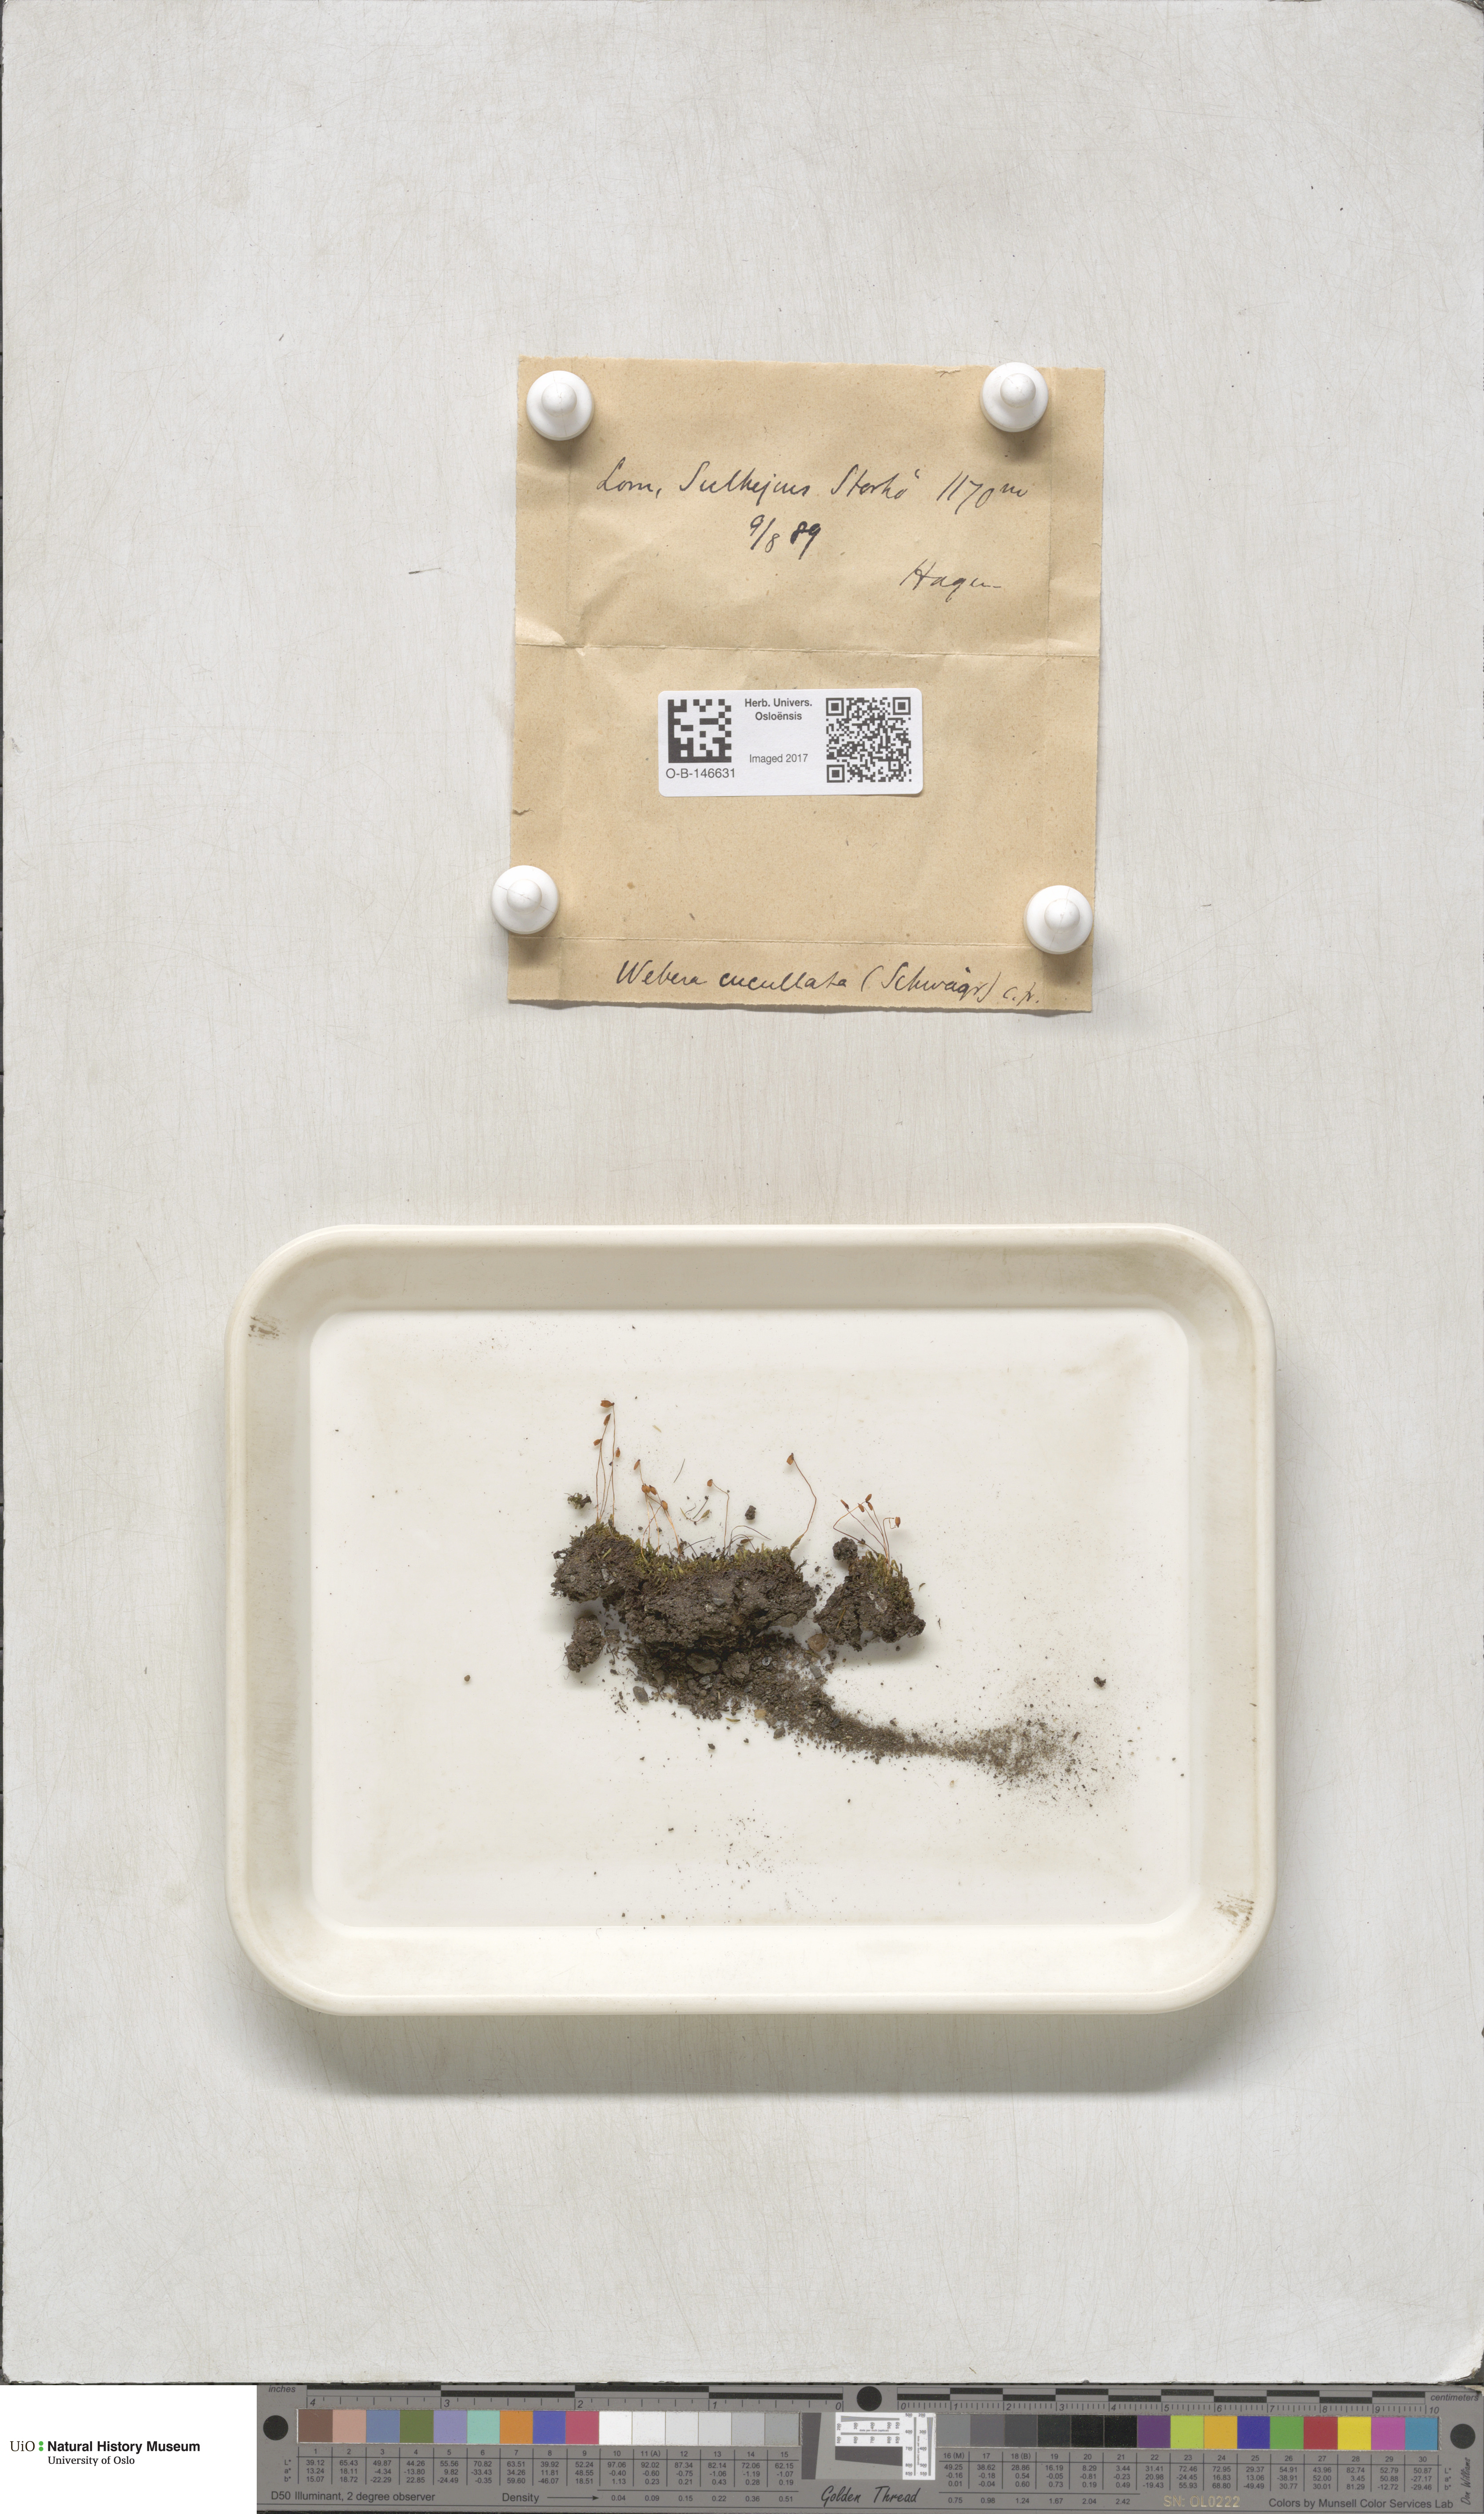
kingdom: Plantae
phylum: Bryophyta
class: Bryopsida
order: Bryales
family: Mniaceae
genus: Pohlia
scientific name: Pohlia obtusifolia
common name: Blunt nodding moss
